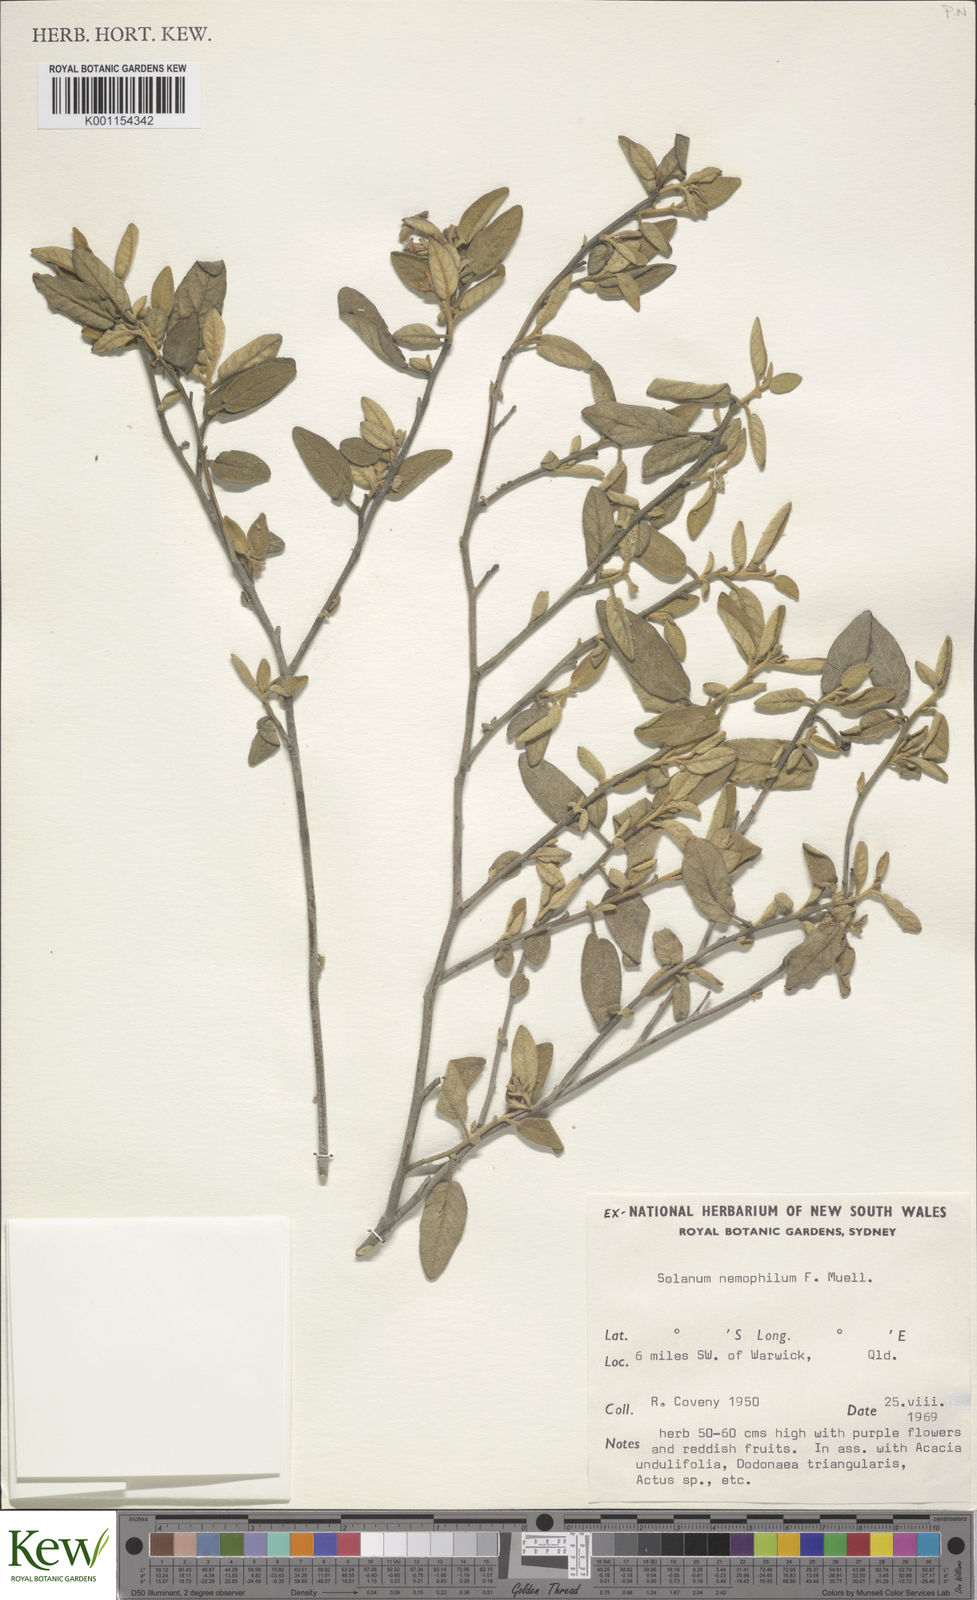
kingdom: Plantae
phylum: Tracheophyta
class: Magnoliopsida
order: Solanales
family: Solanaceae
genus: Solanum
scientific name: Solanum nemophilum
